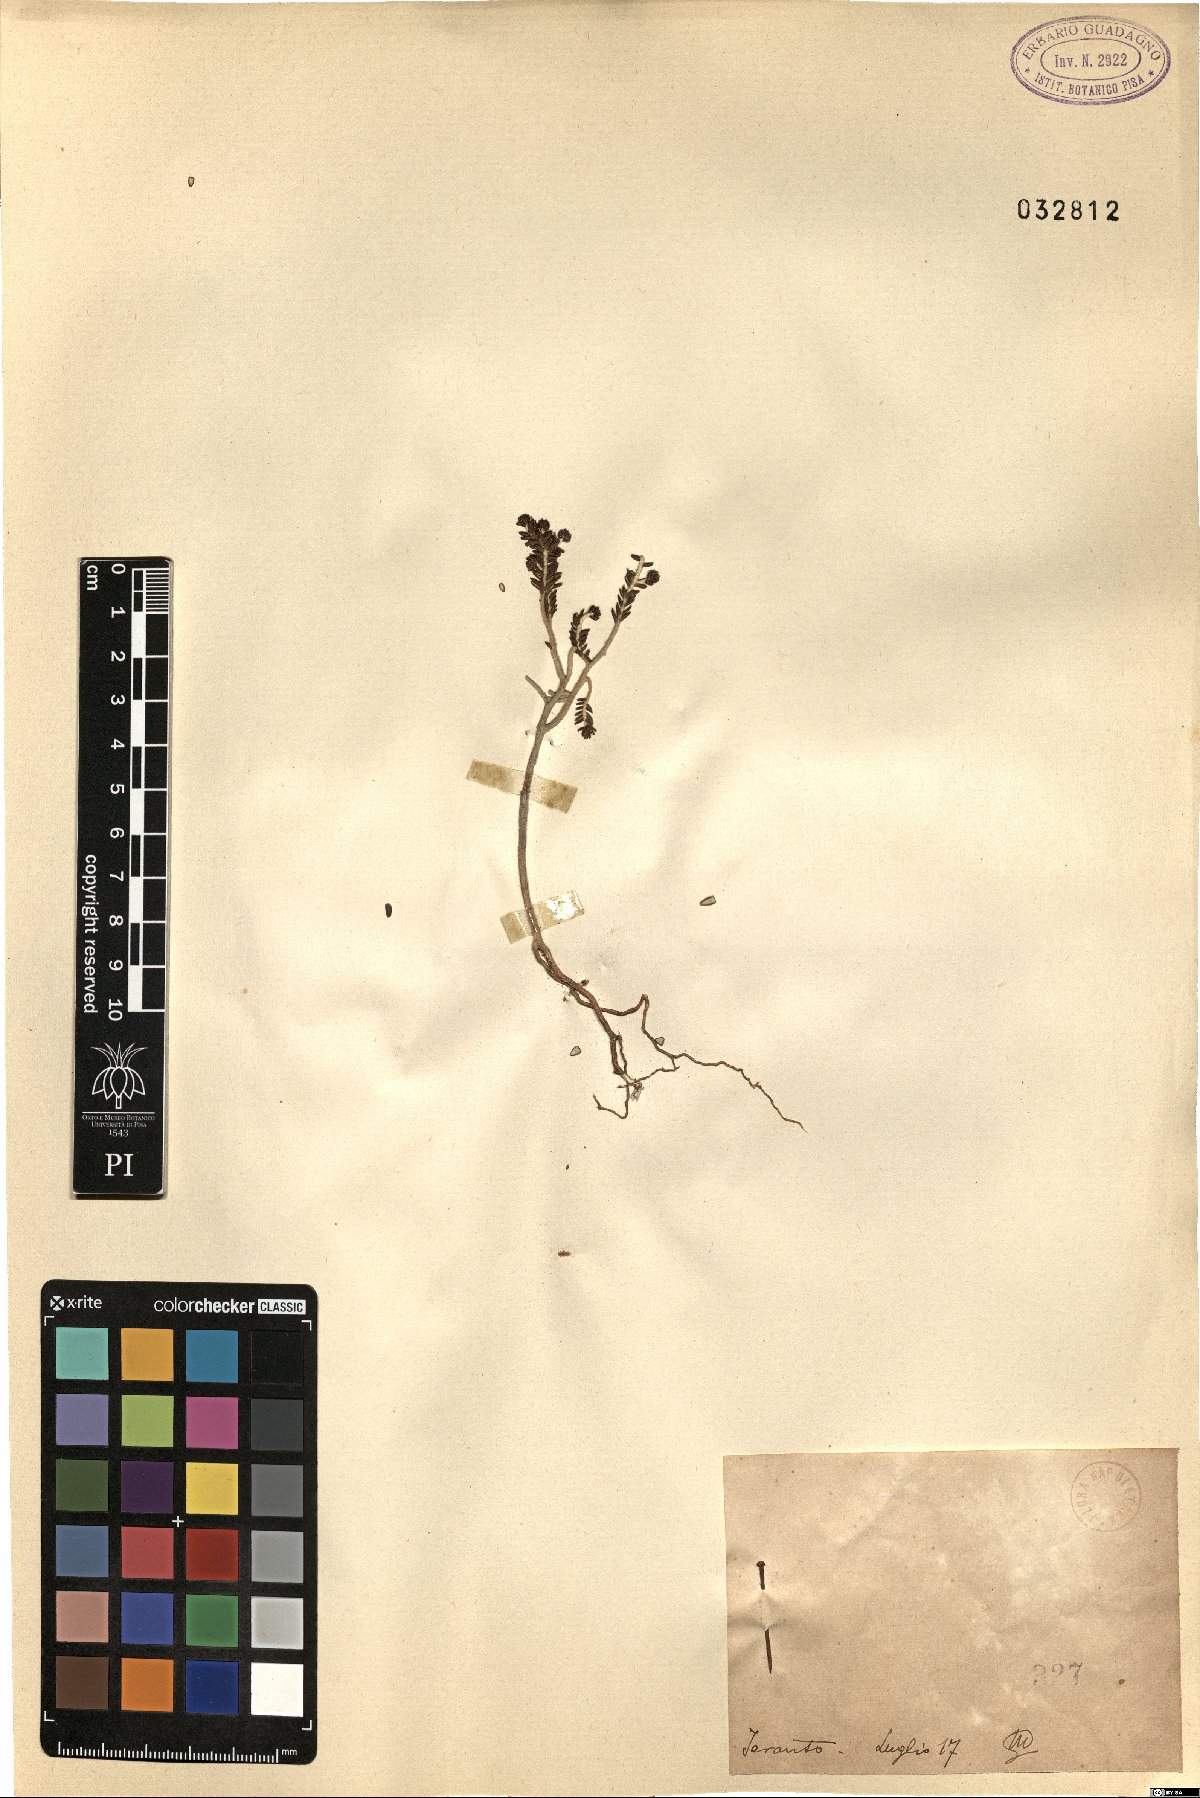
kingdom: Plantae
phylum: Tracheophyta
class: Magnoliopsida
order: Malvales
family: Thymelaeaceae
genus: Thymelaea
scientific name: Thymelaea
